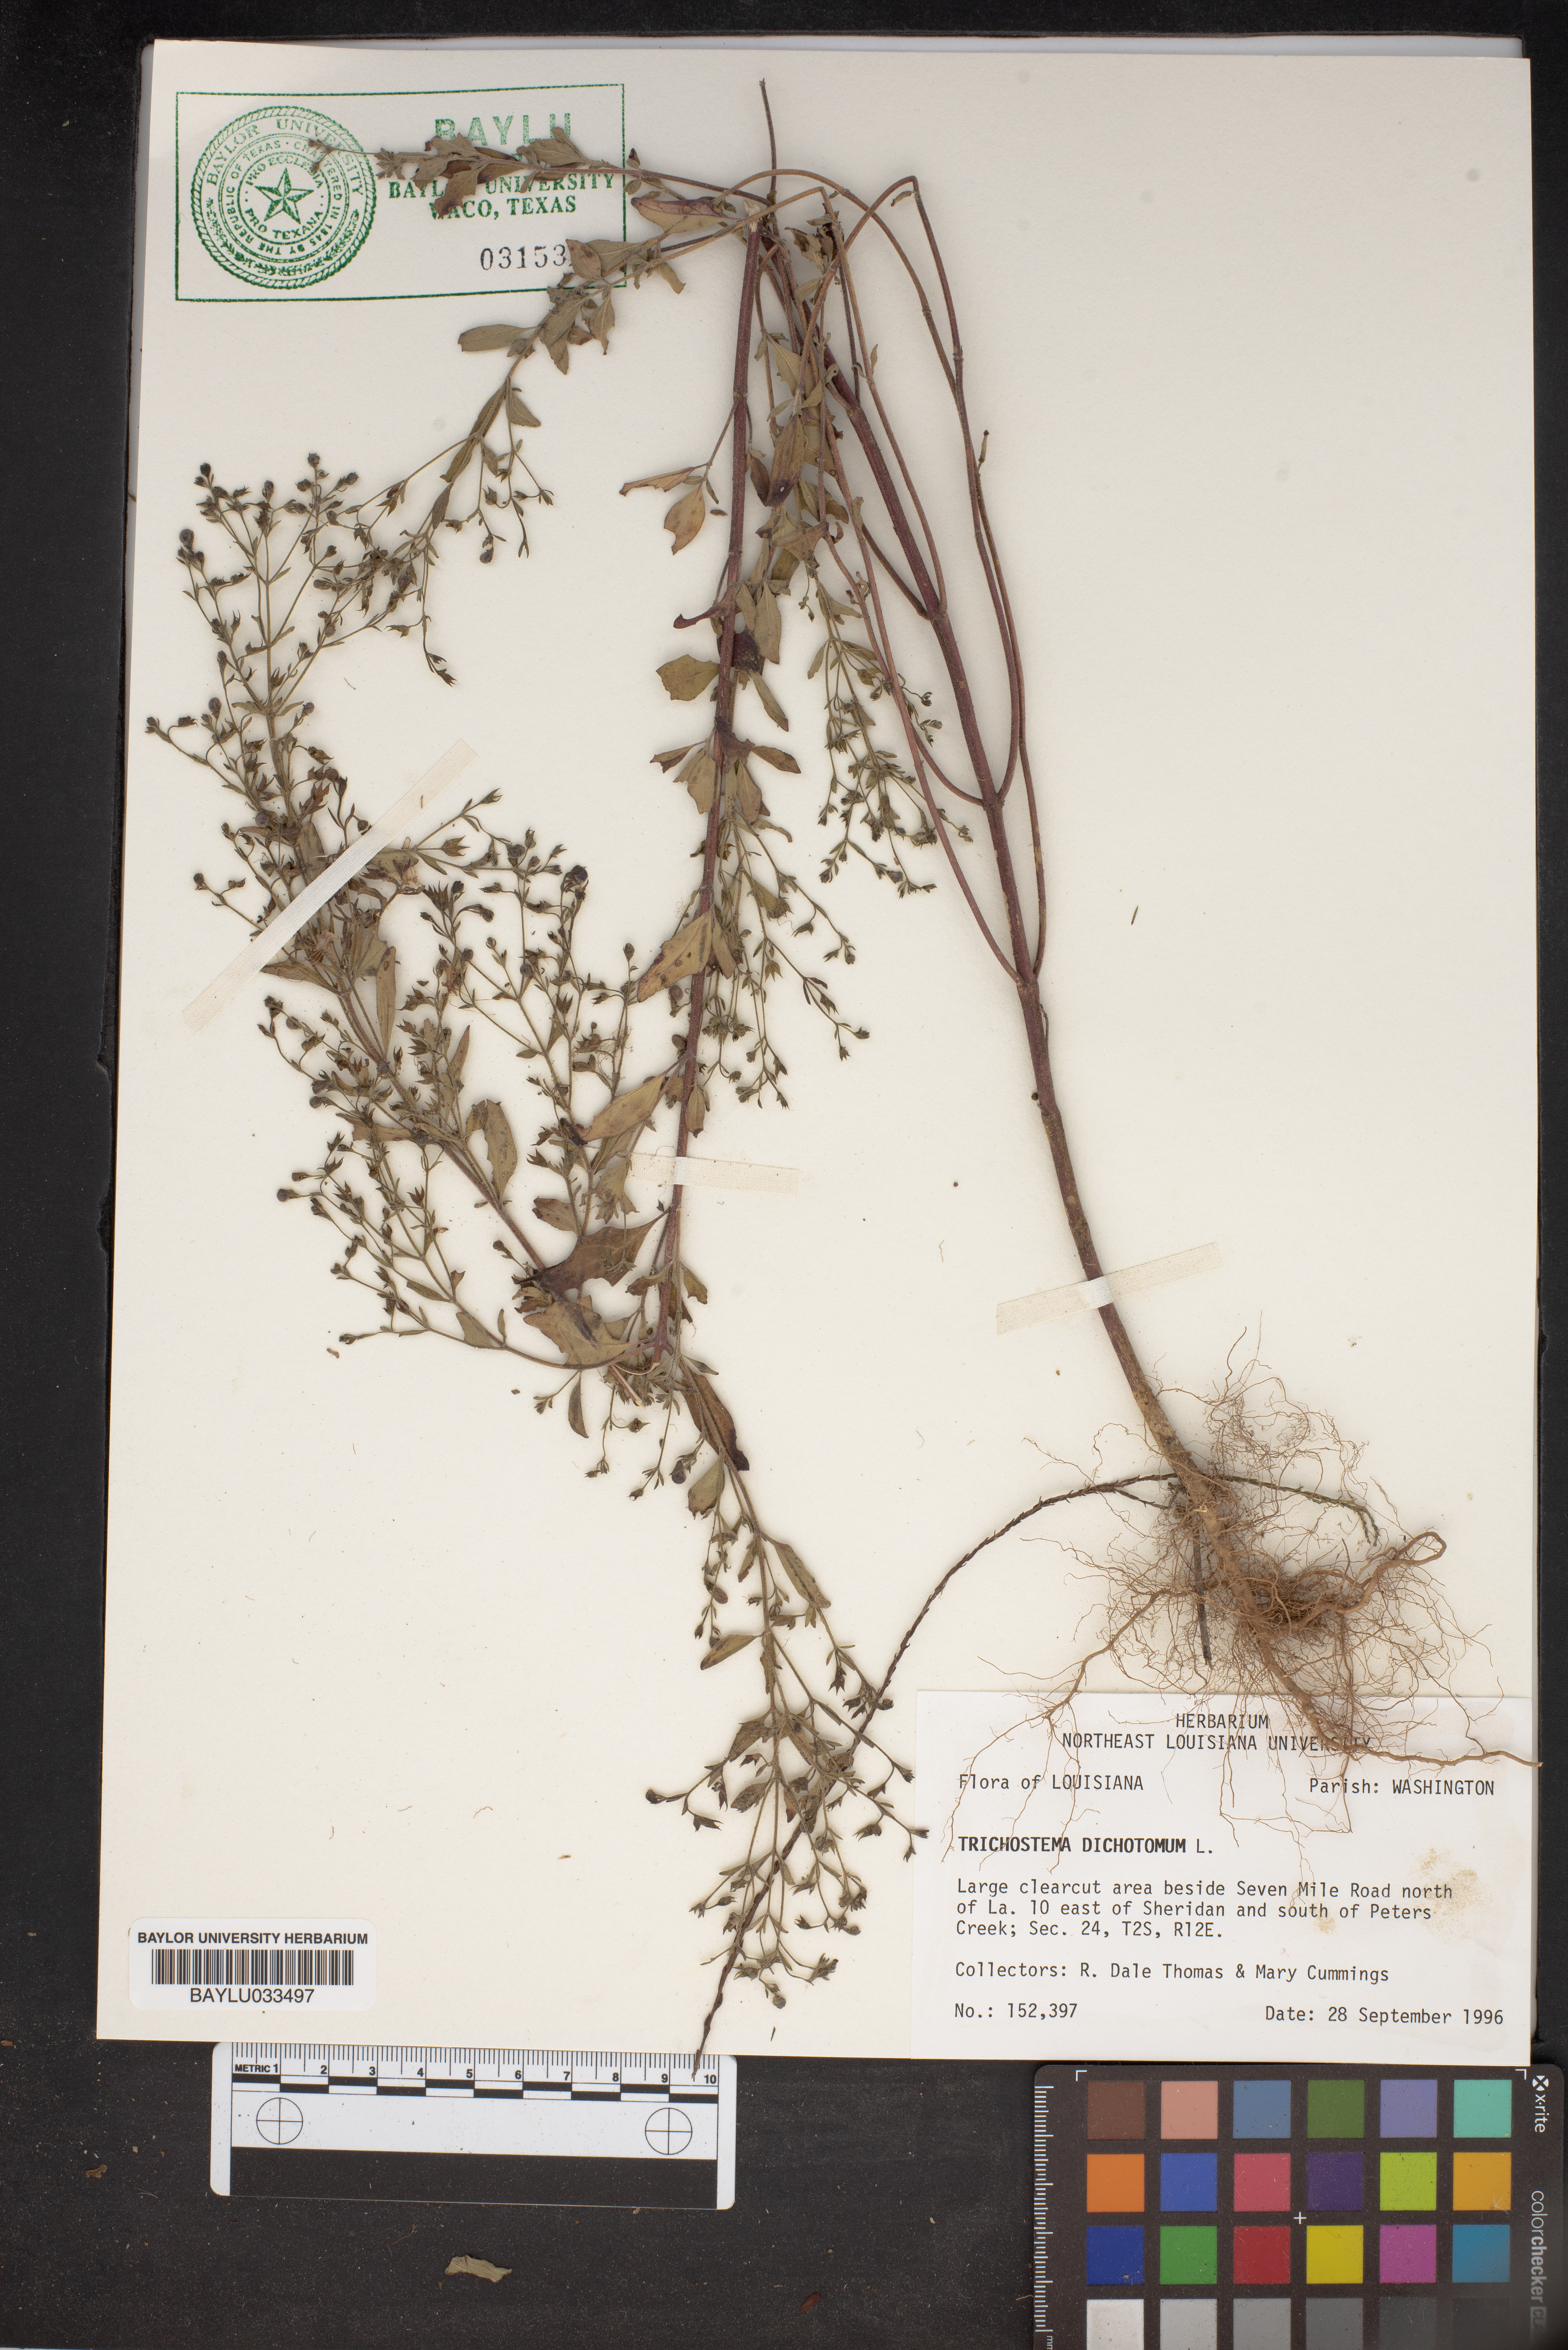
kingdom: Plantae
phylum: Tracheophyta
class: Magnoliopsida
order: Lamiales
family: Lamiaceae
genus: Trichostema
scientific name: Trichostema dichotomum
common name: Bastard pennyroyal
